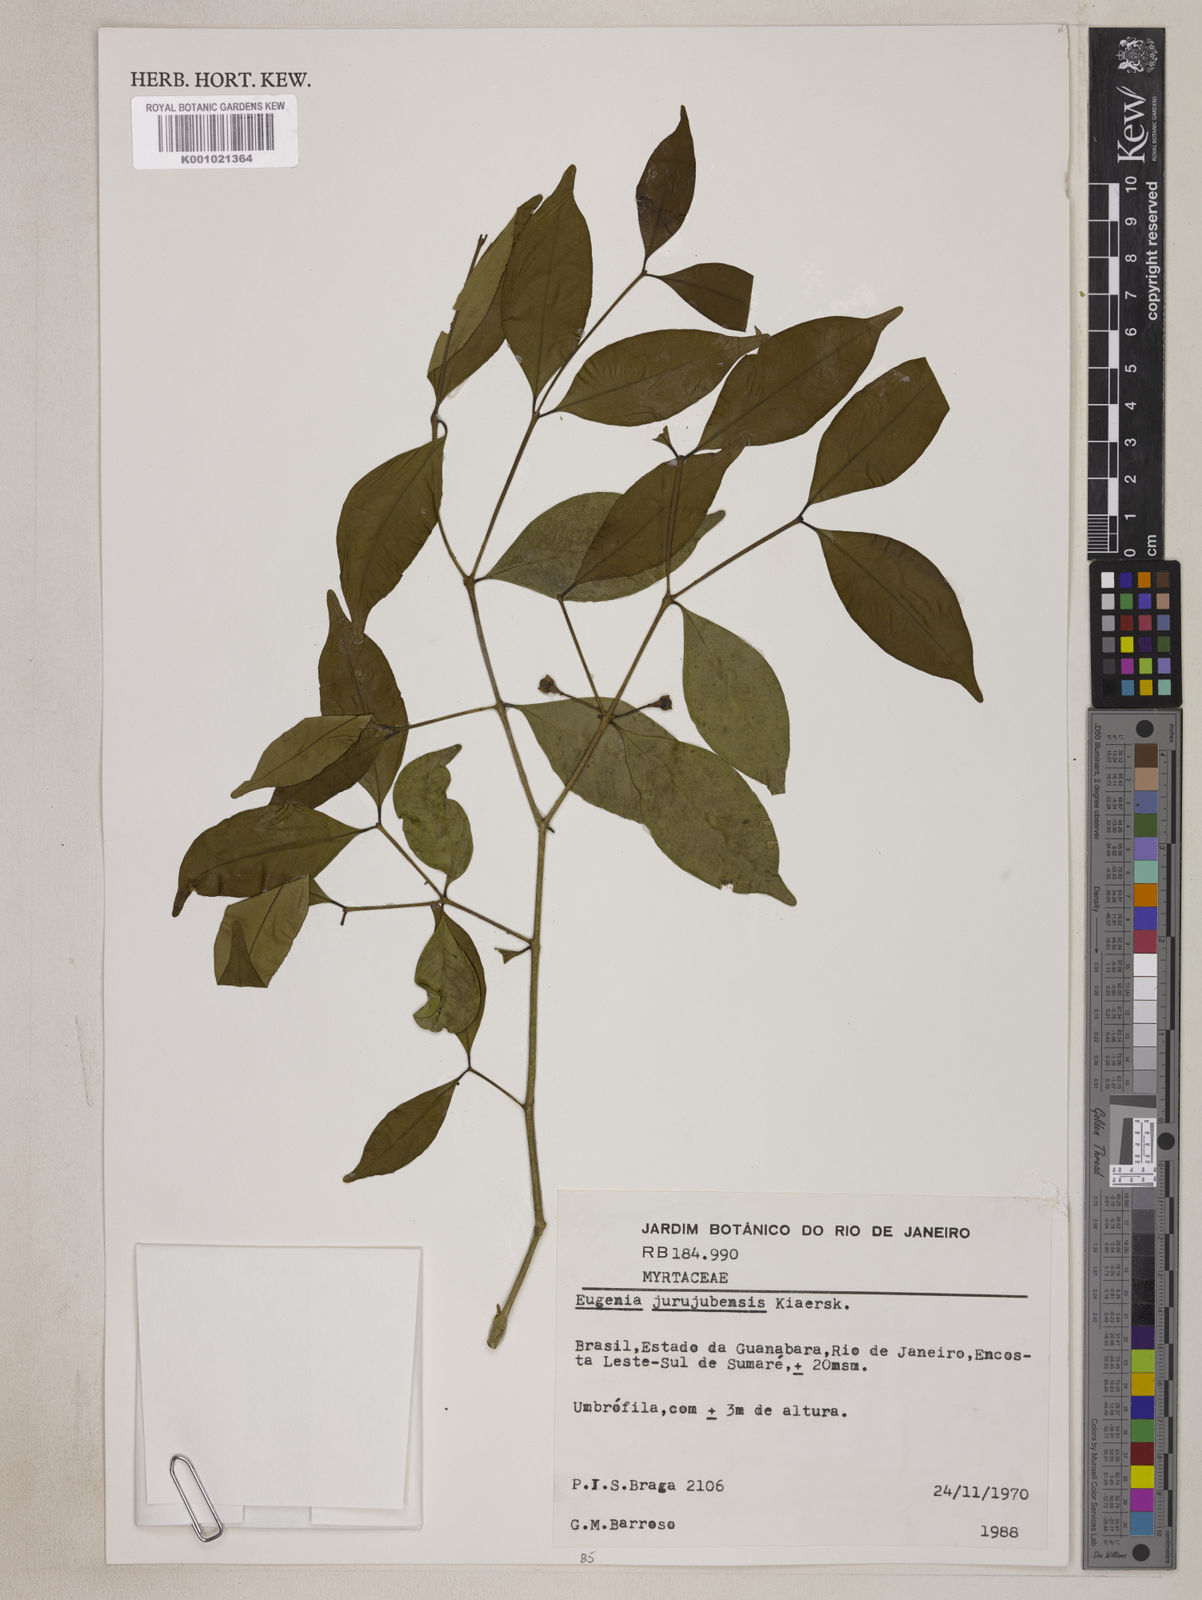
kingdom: Plantae
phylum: Tracheophyta
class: Magnoliopsida
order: Myrtales
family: Myrtaceae
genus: Eugenia
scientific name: Eugenia prasina
